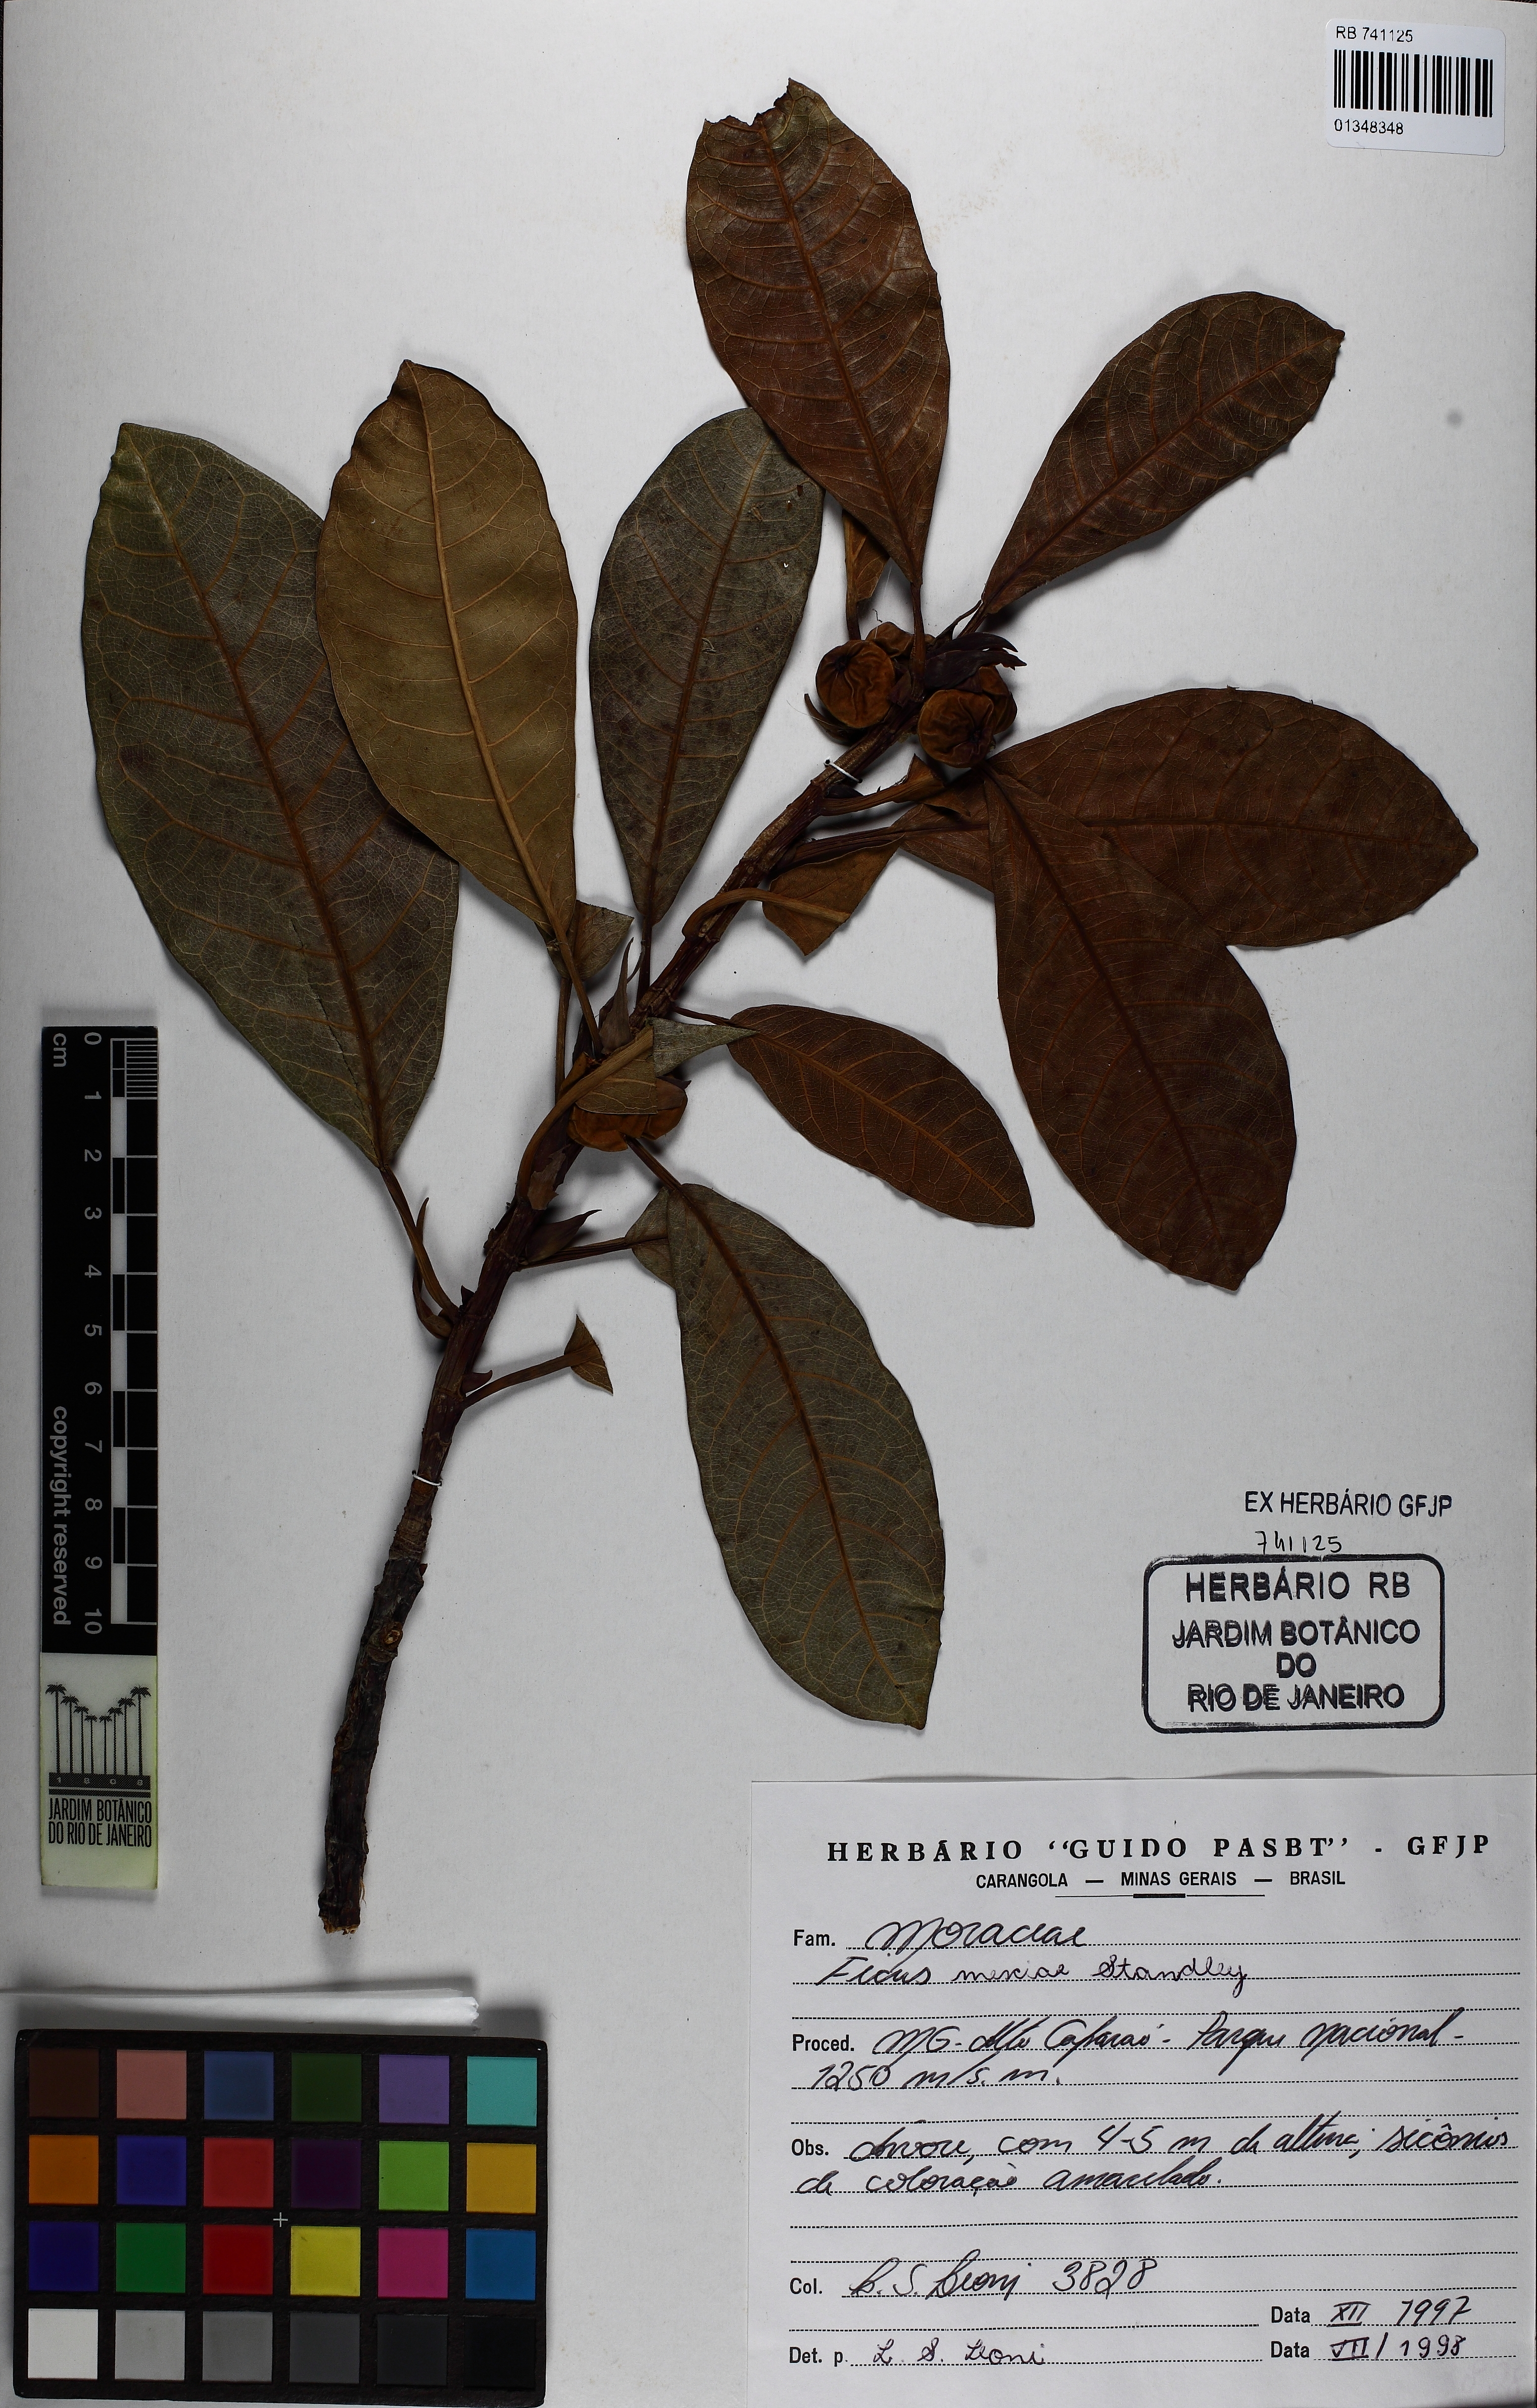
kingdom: Plantae
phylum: Tracheophyta
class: Magnoliopsida
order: Rosales
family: Moraceae
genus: Ficus
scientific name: Ficus mexiae
